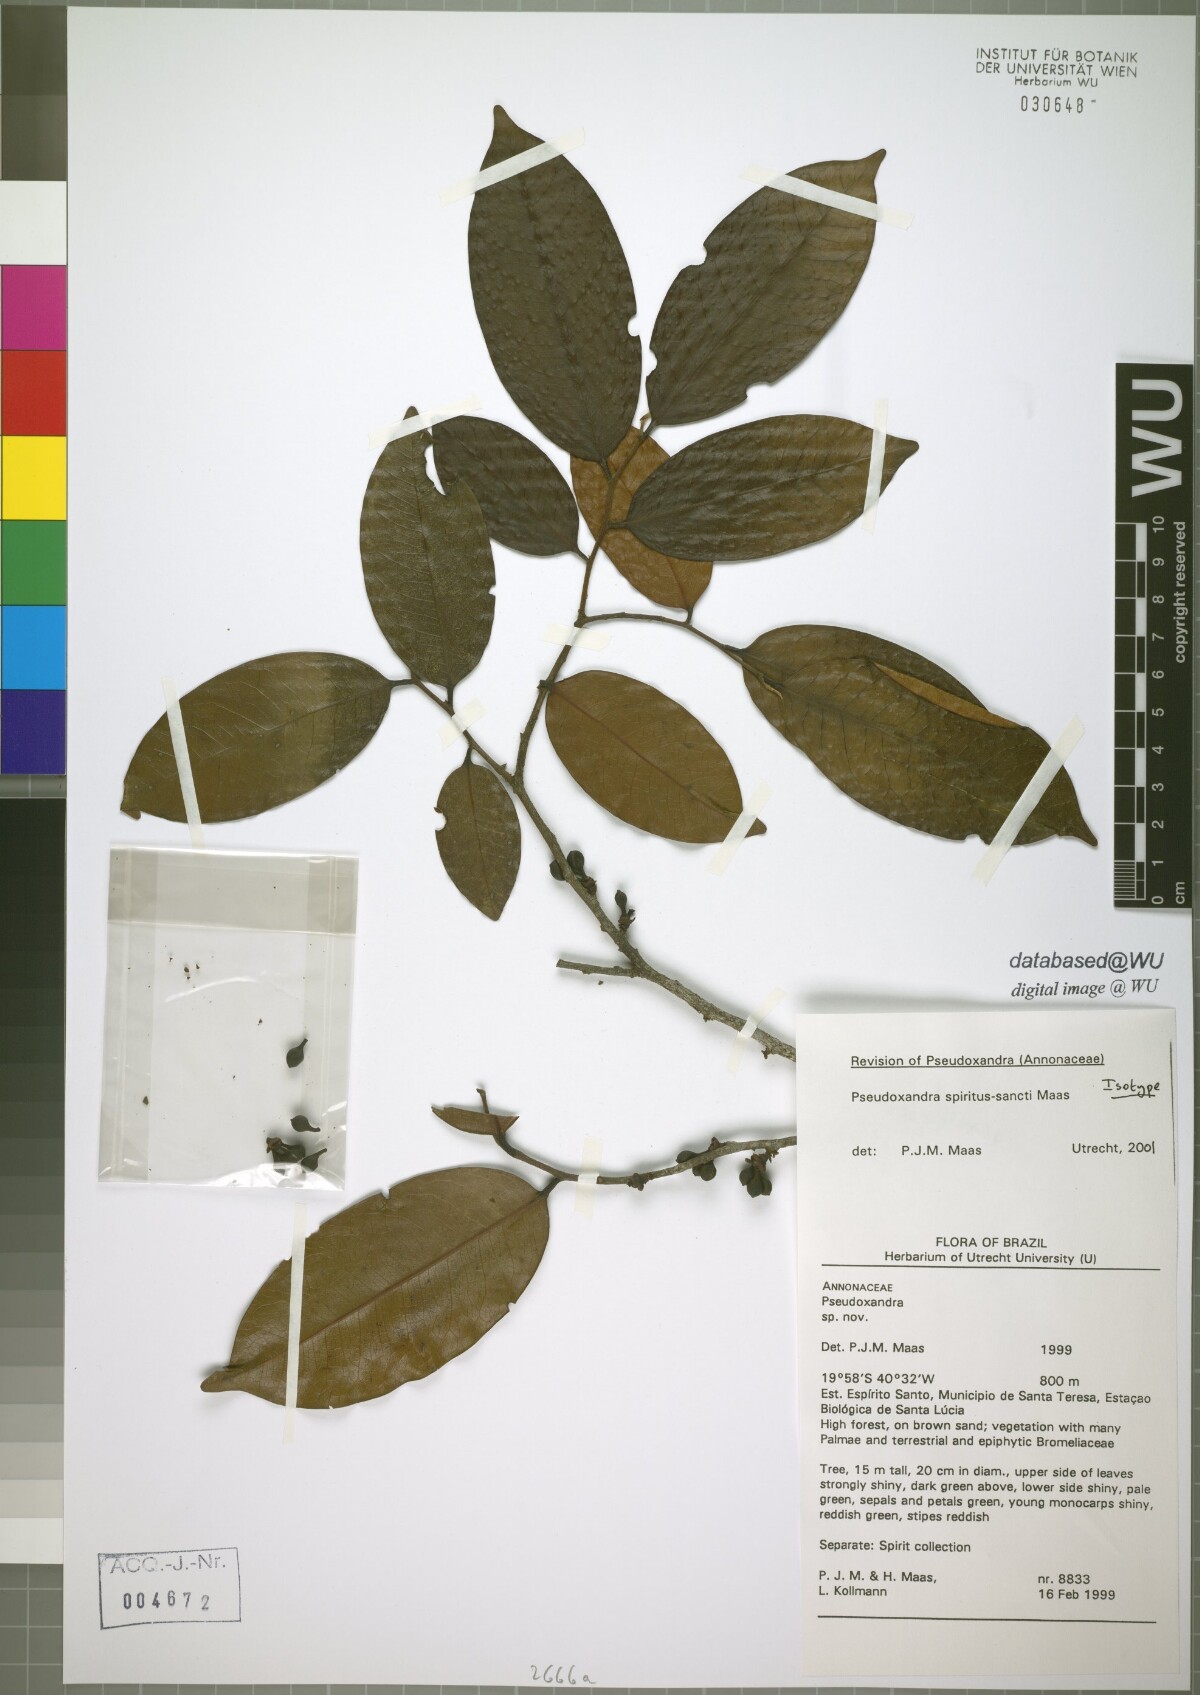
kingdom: Plantae
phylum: Tracheophyta
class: Magnoliopsida
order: Magnoliales
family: Annonaceae
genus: Pseudoxandra
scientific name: Pseudoxandra spiritus-sancti
